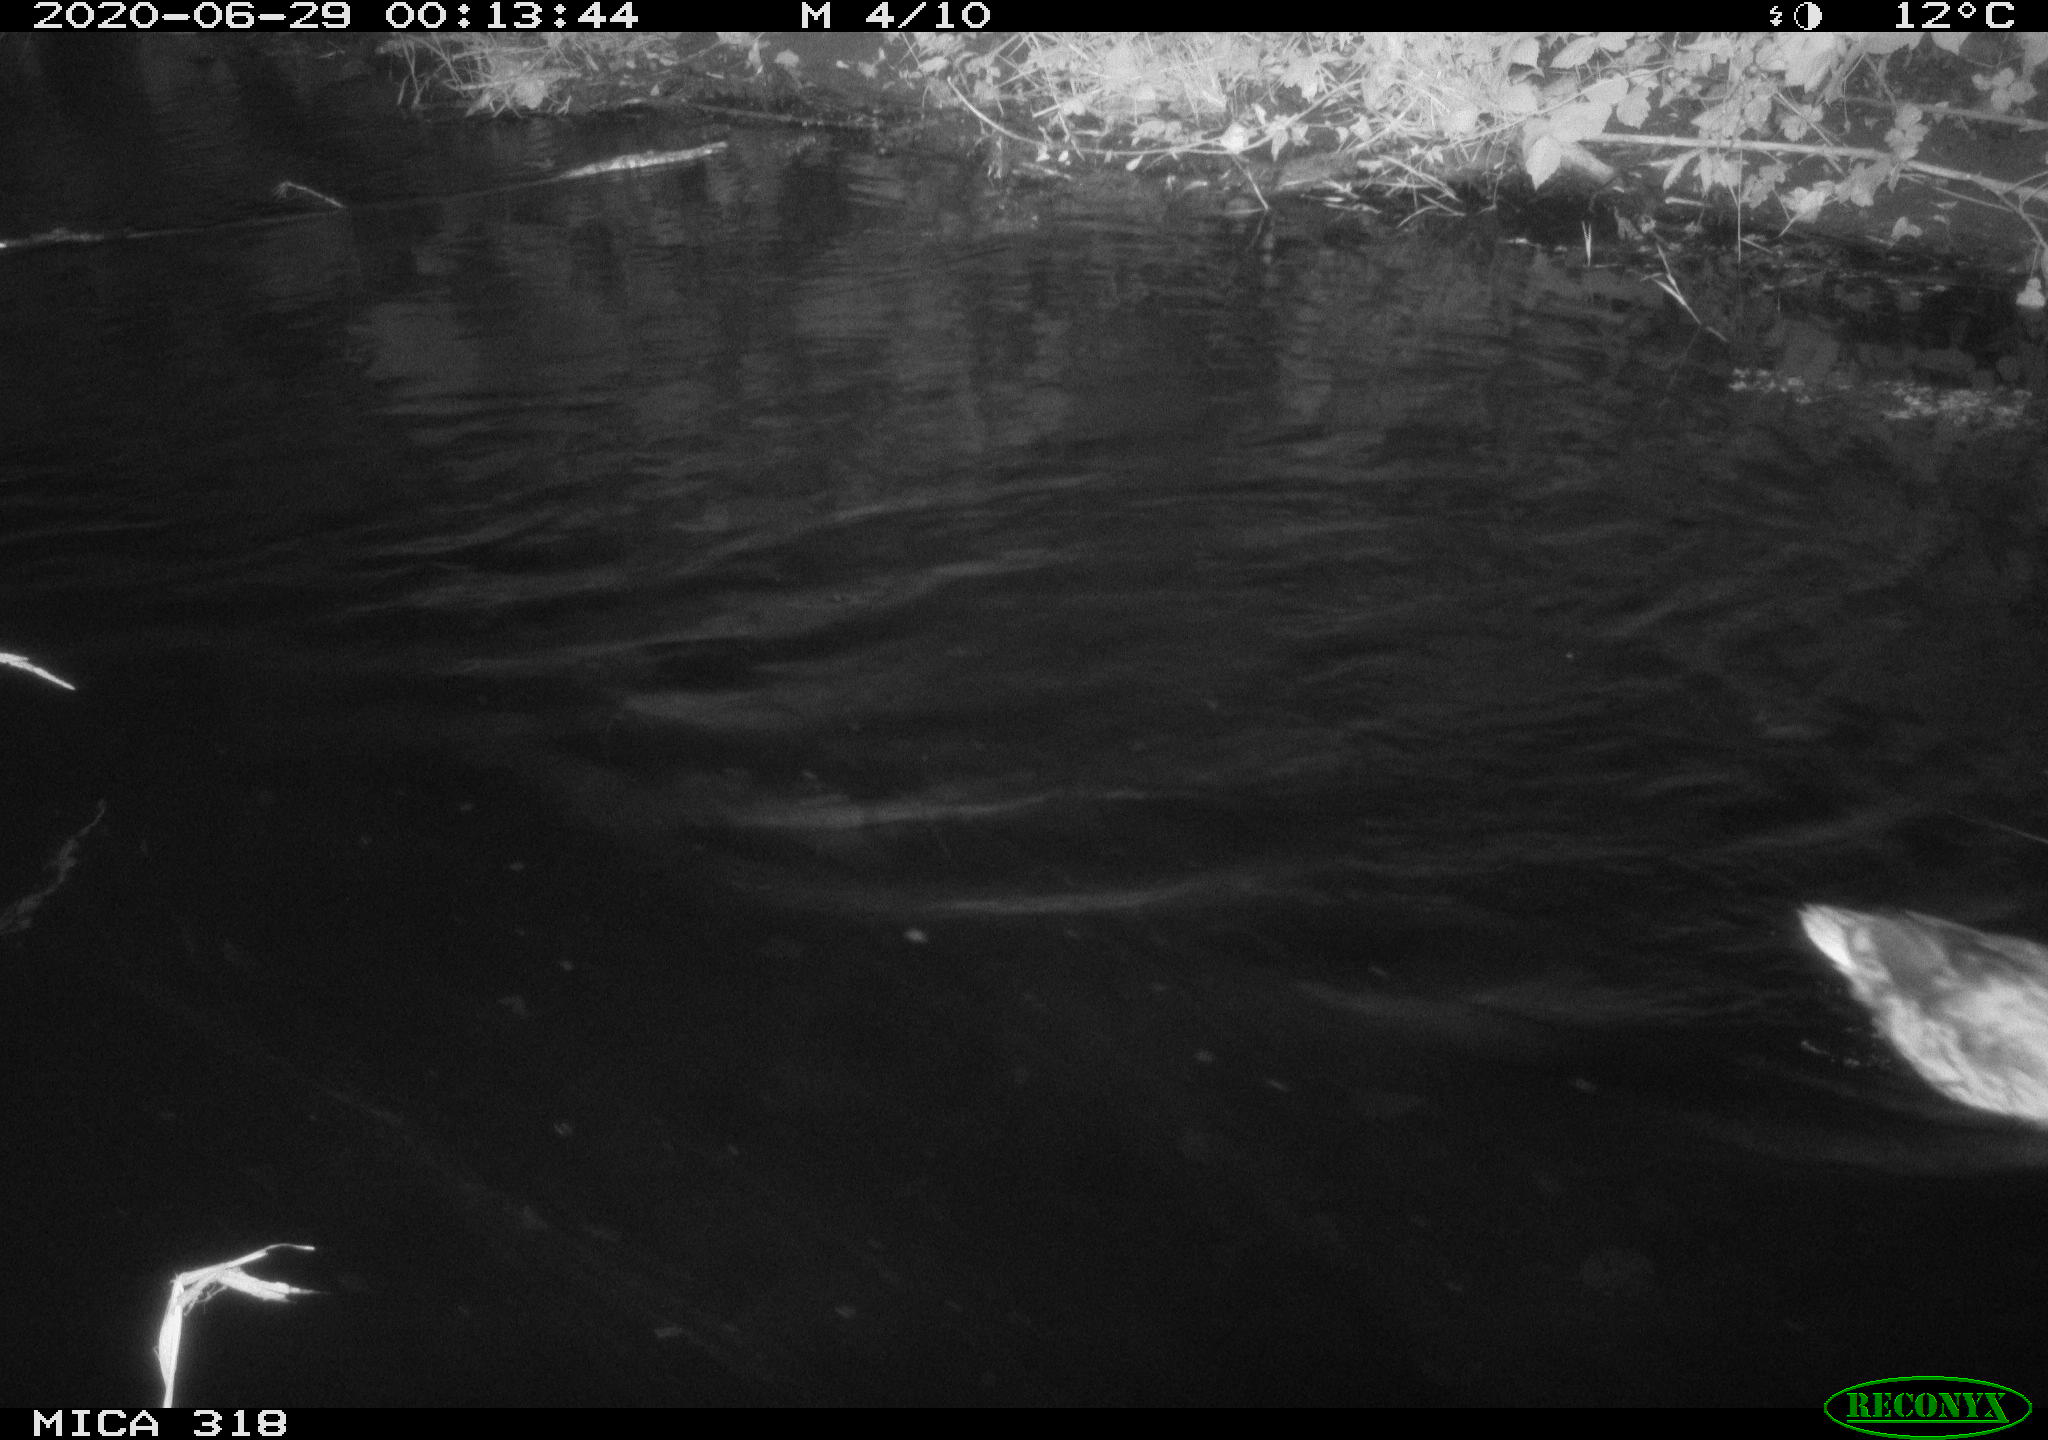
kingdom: Animalia
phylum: Chordata
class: Aves
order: Anseriformes
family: Anatidae
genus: Anas
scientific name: Anas platyrhynchos
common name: Mallard
